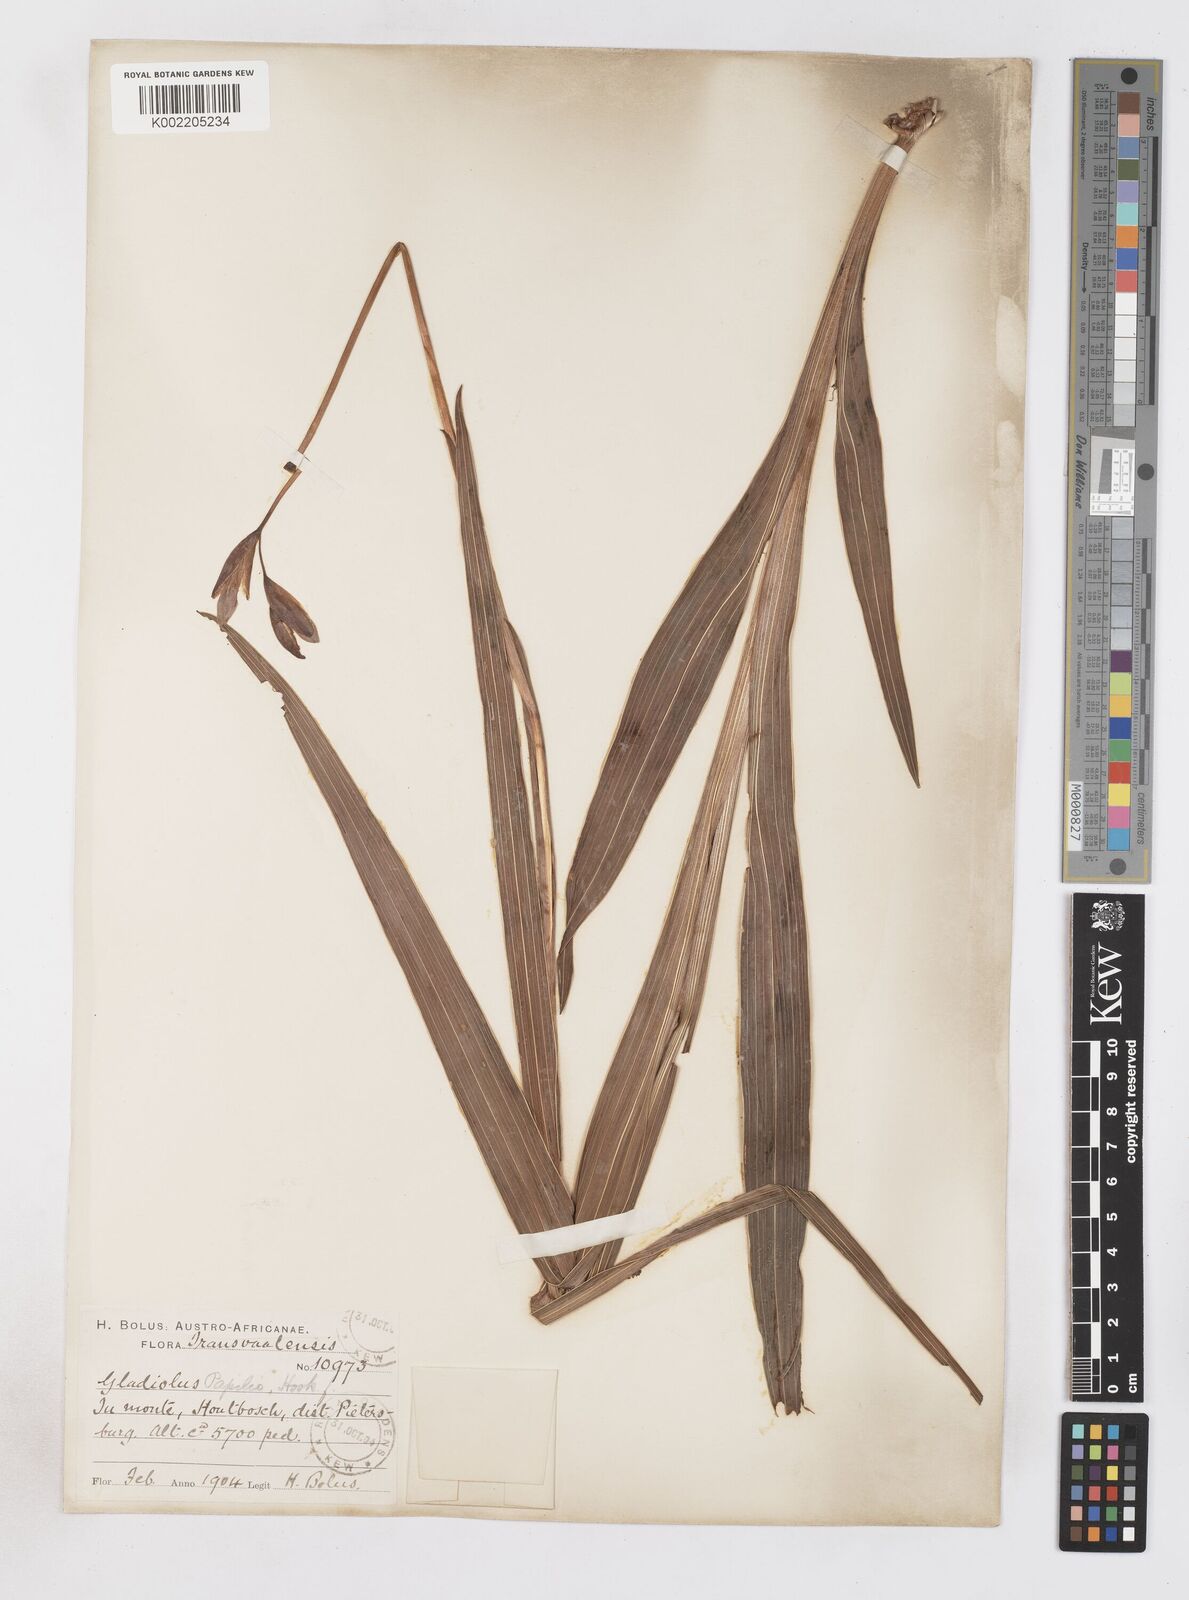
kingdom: Plantae
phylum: Tracheophyta
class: Liliopsida
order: Asparagales
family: Iridaceae
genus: Gladiolus
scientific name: Gladiolus papilio
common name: Goldblotch gladiolus
